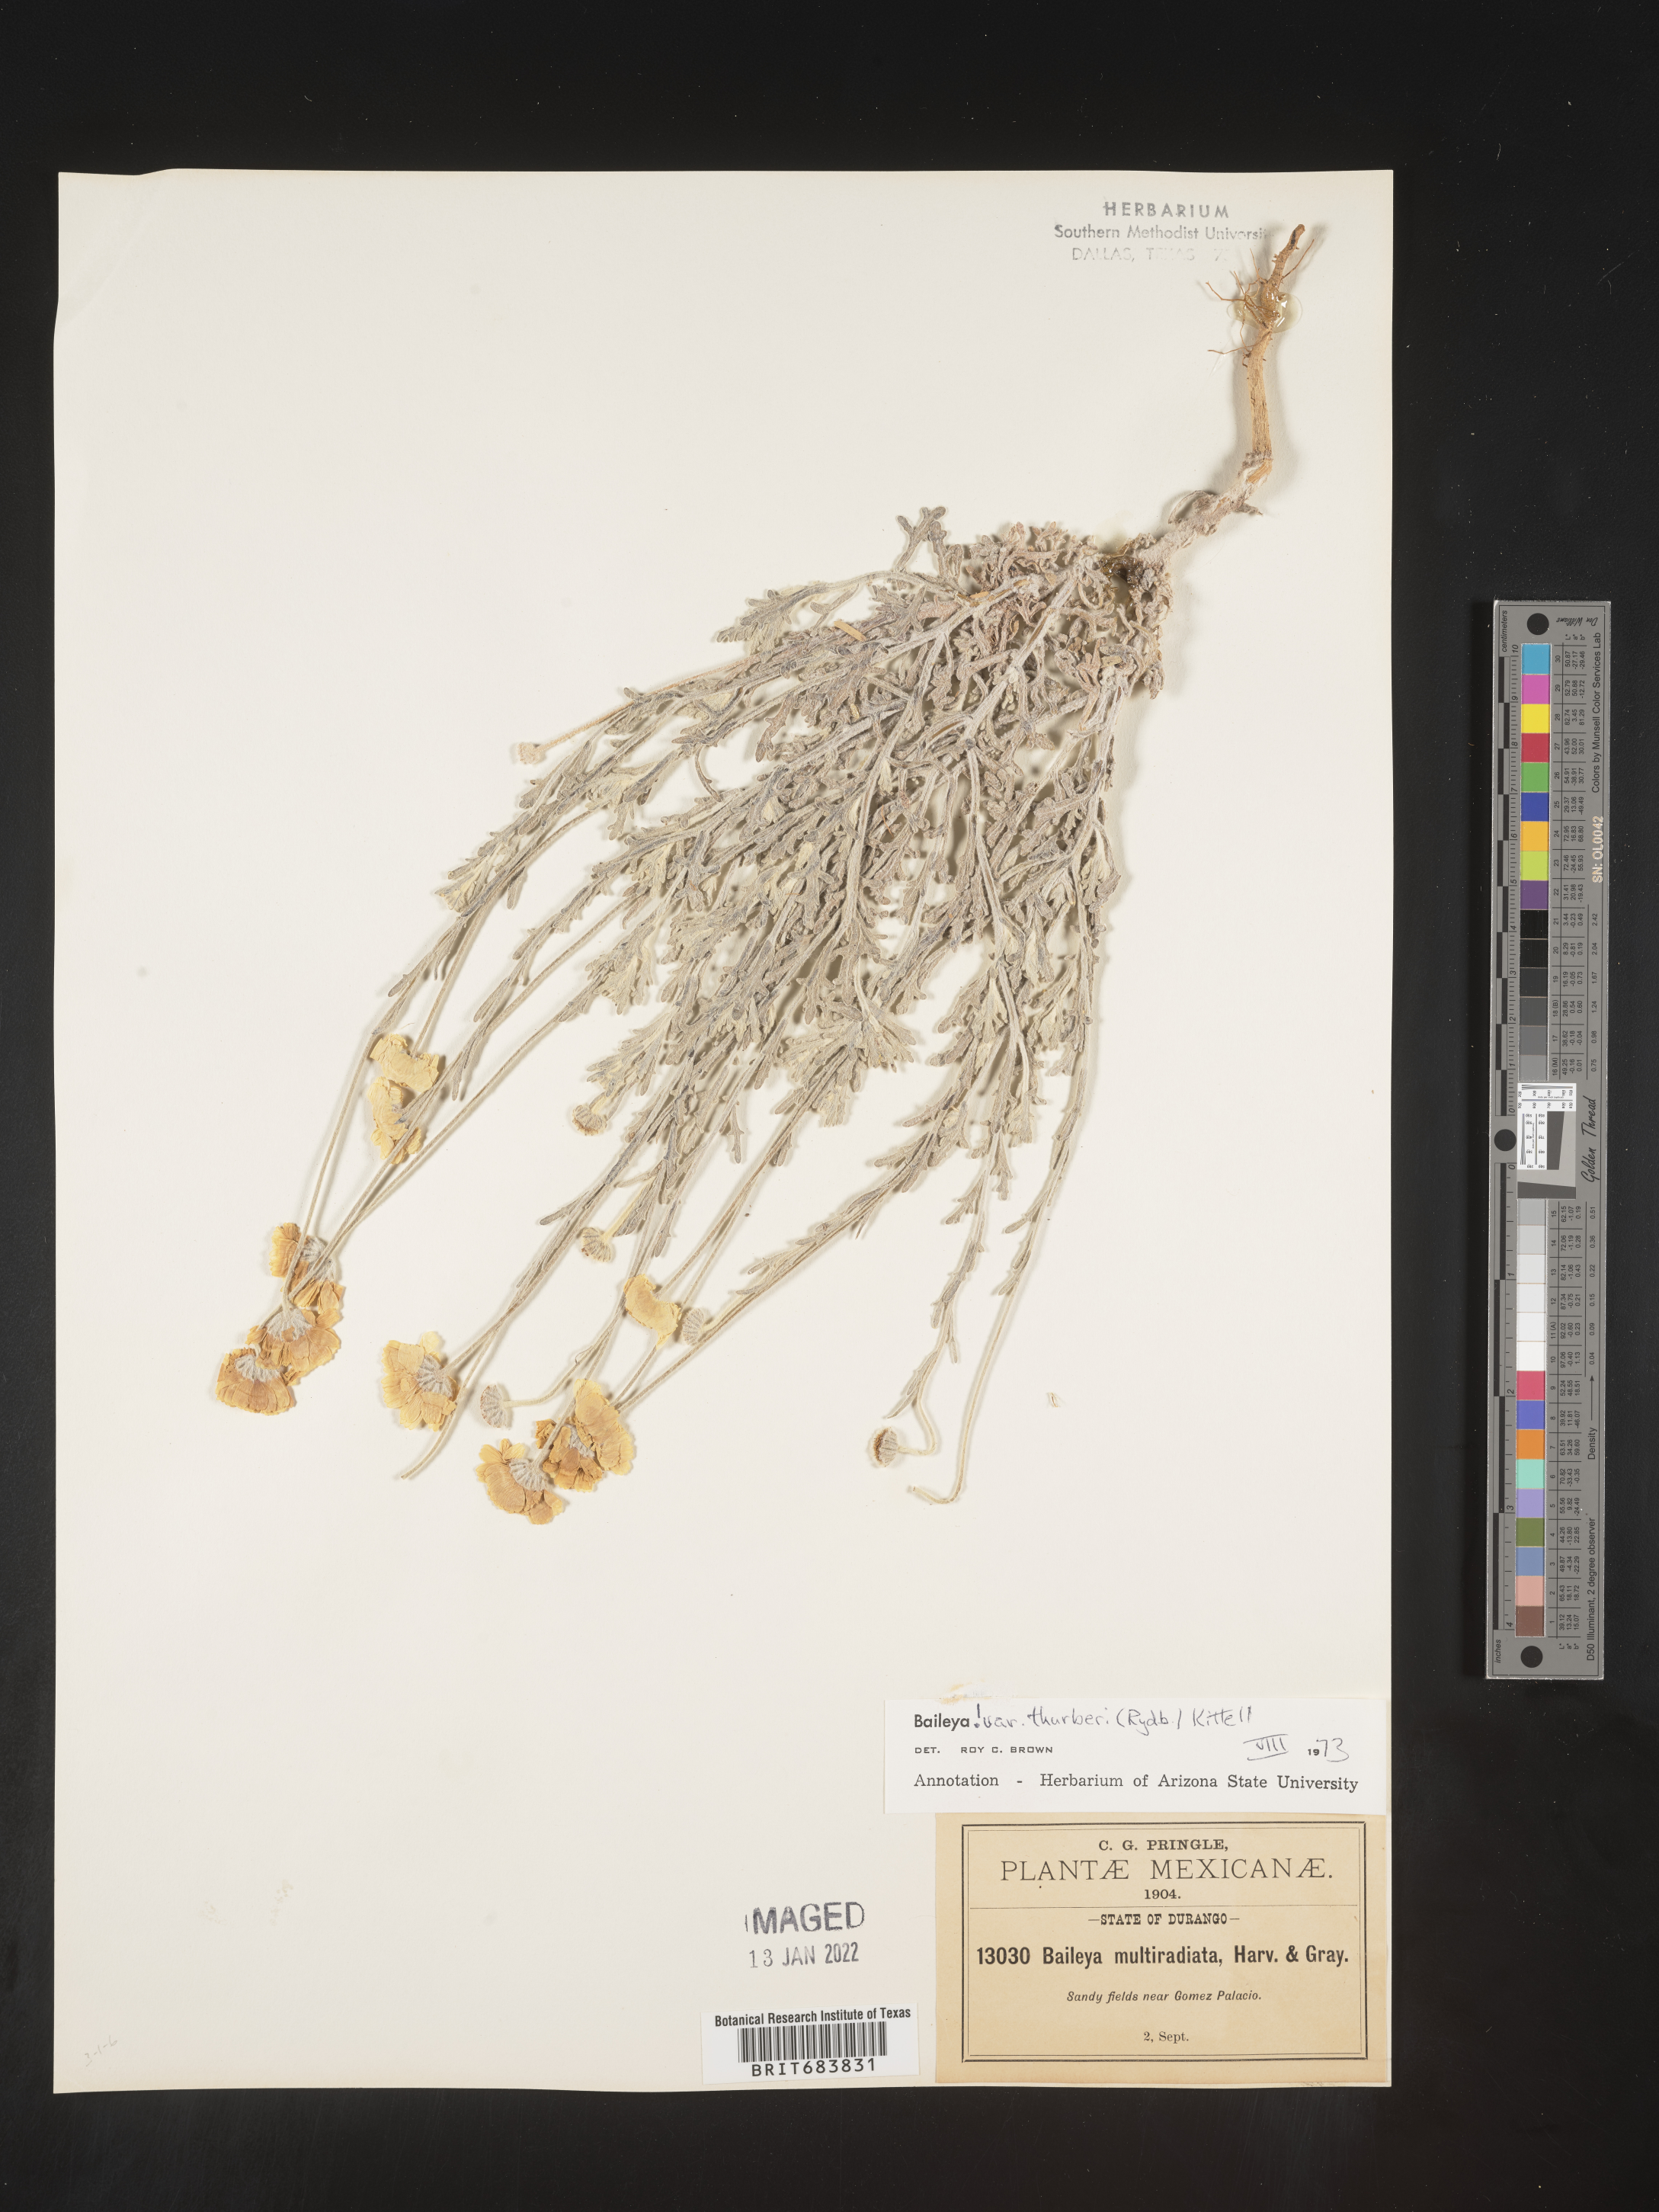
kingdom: Plantae
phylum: Tracheophyta
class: Magnoliopsida
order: Asterales
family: Asteraceae
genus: Baileya
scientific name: Baileya
